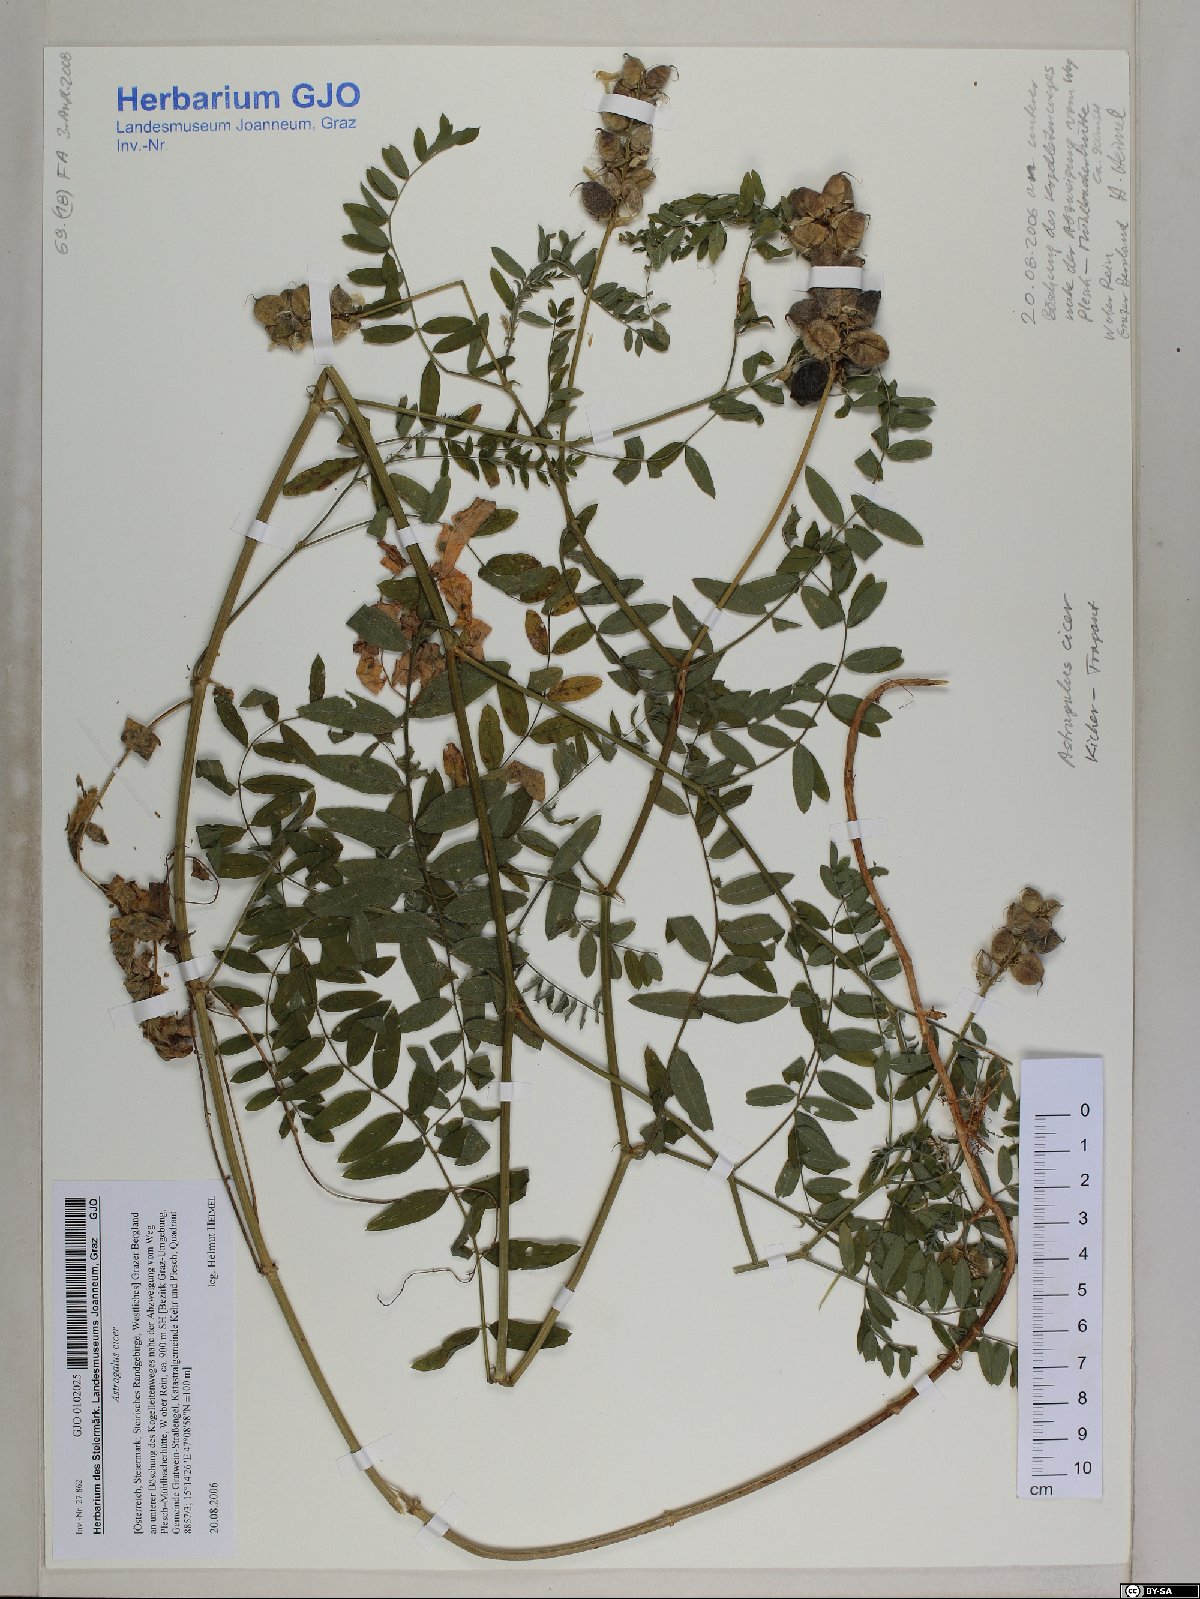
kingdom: Plantae
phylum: Tracheophyta
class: Magnoliopsida
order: Fabales
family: Fabaceae
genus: Astragalus
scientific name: Astragalus cicer
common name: Chick-pea milk-vetch
